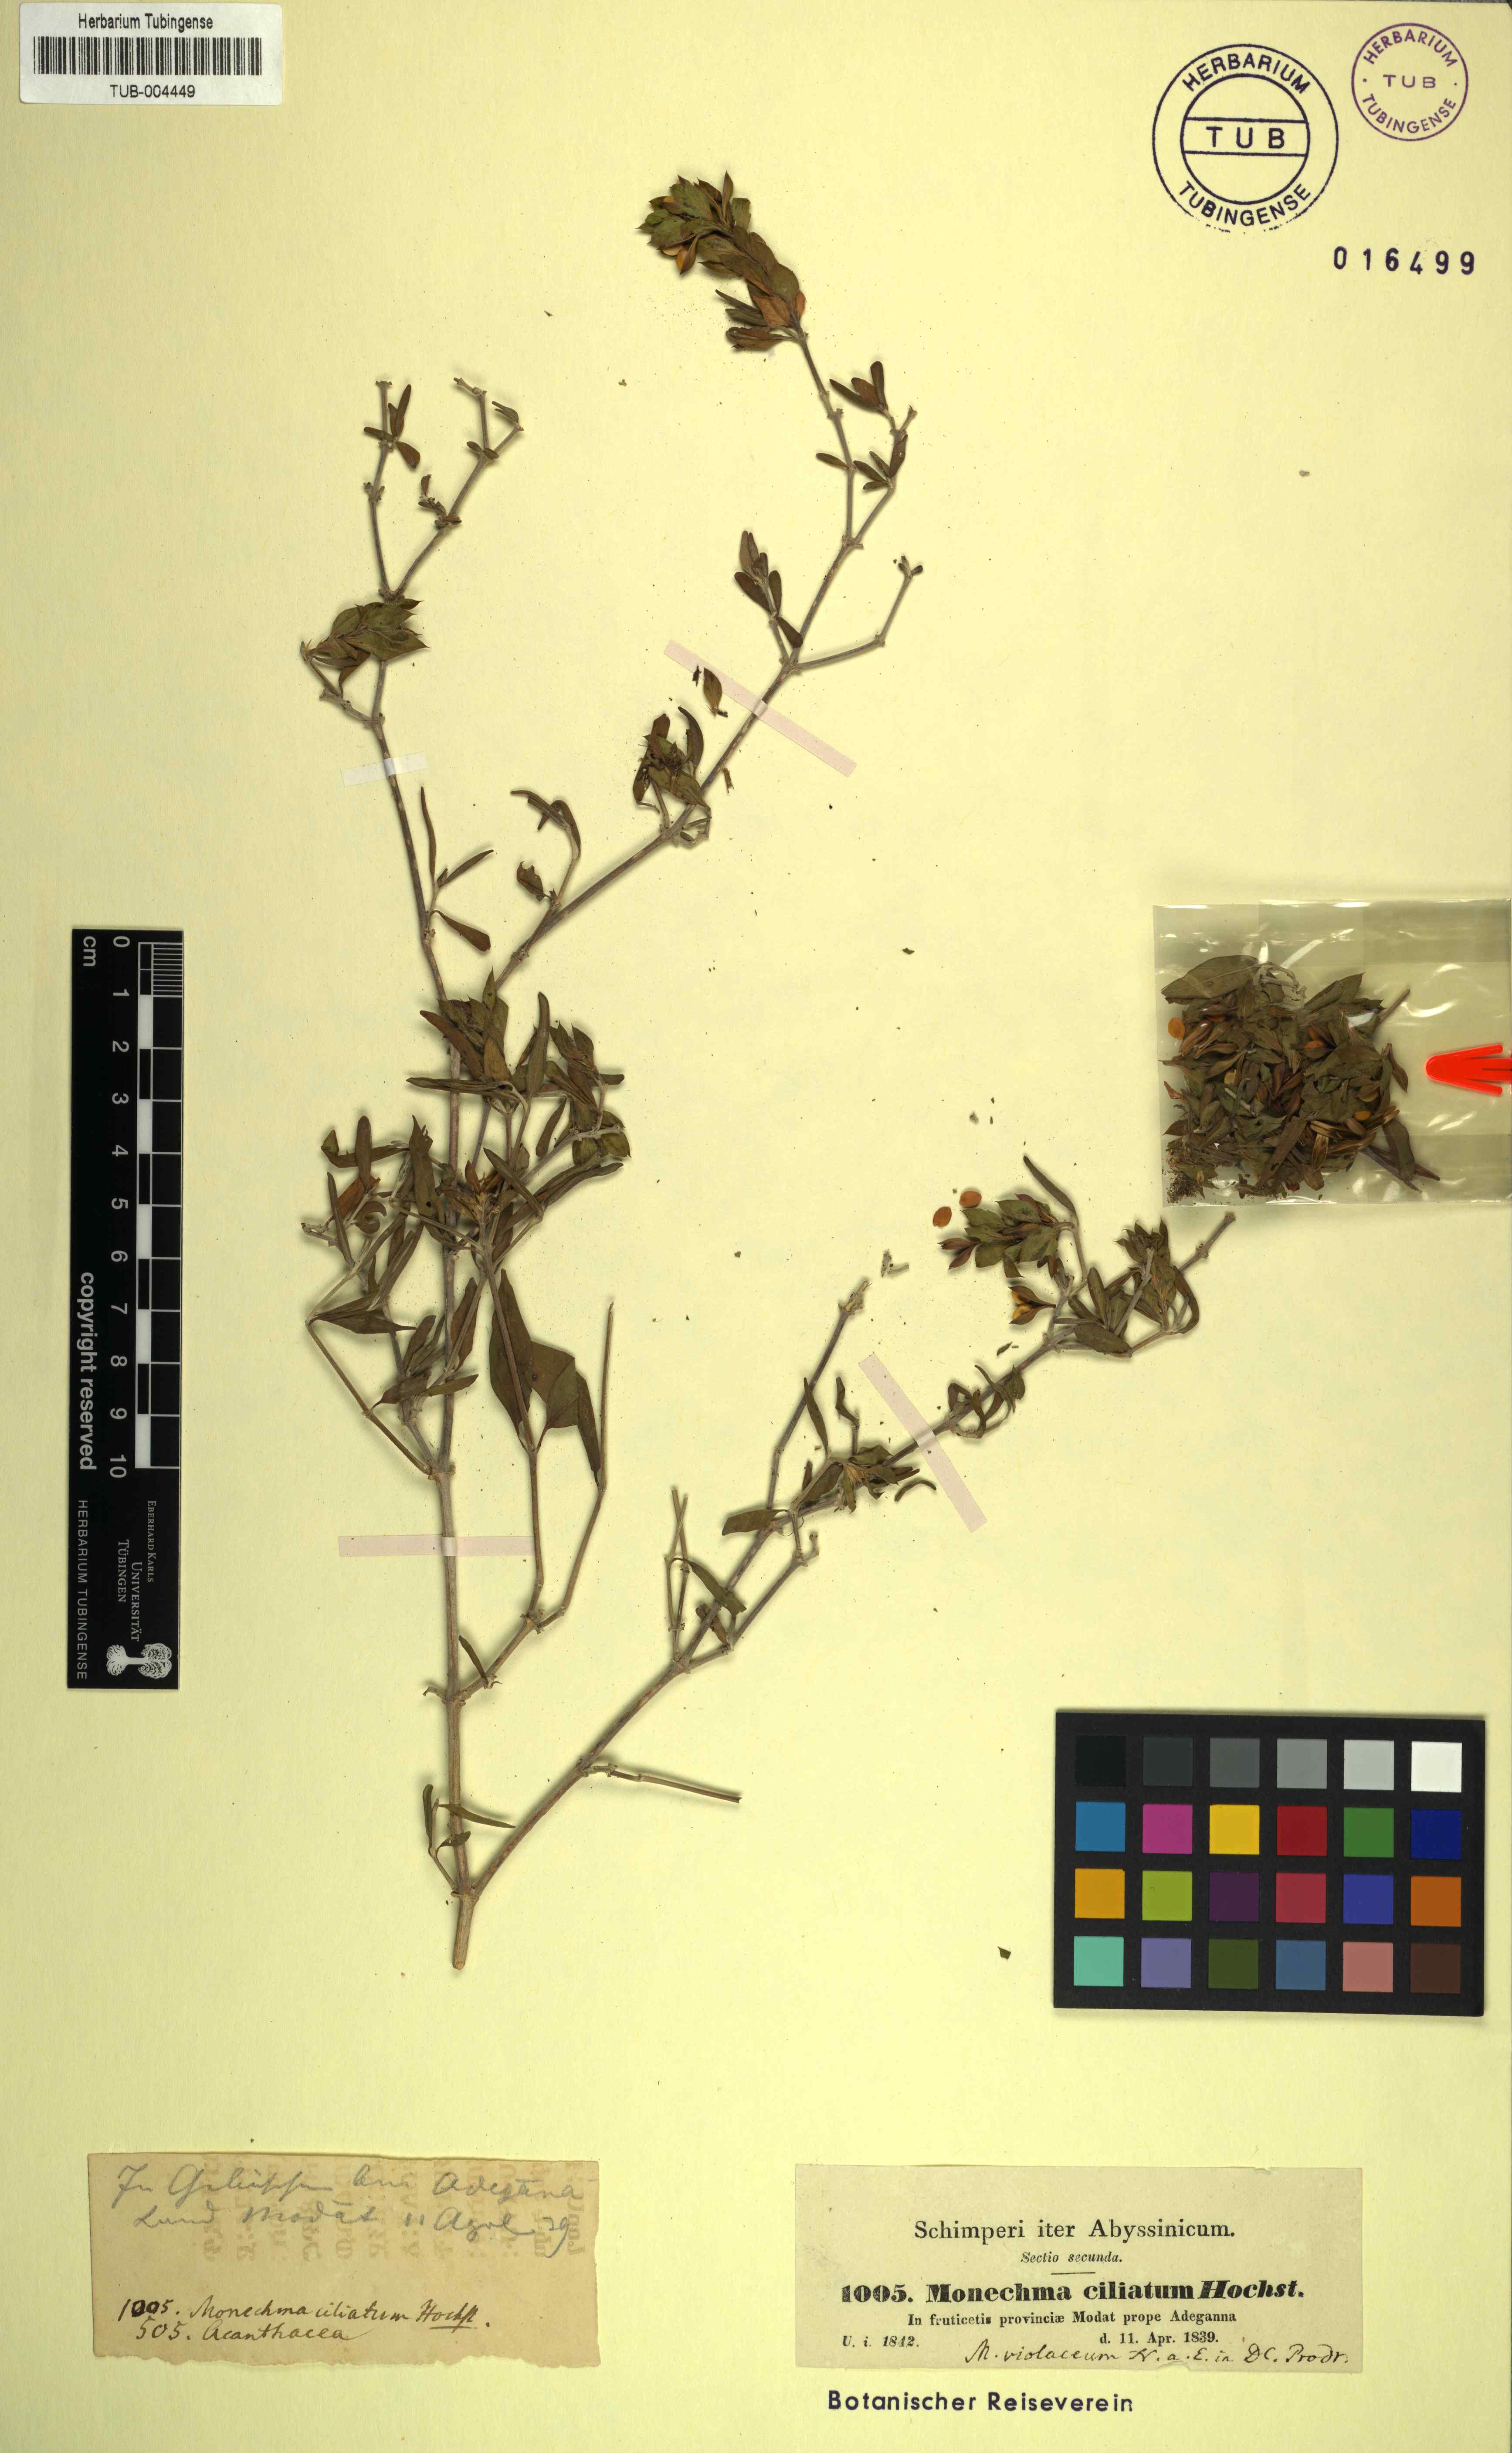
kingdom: Plantae
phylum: Tracheophyta
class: Magnoliopsida
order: Lamiales
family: Acanthaceae
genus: Megalochlamys
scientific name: Megalochlamys violacea
